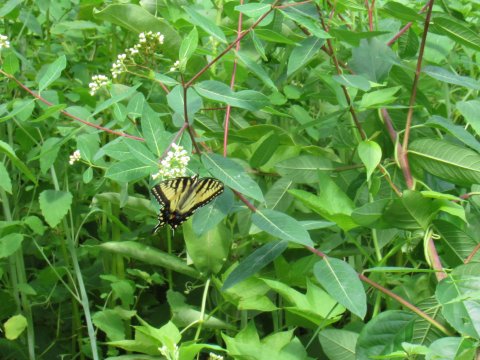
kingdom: Animalia
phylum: Arthropoda
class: Insecta
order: Lepidoptera
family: Papilionidae
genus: Pterourus
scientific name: Pterourus
